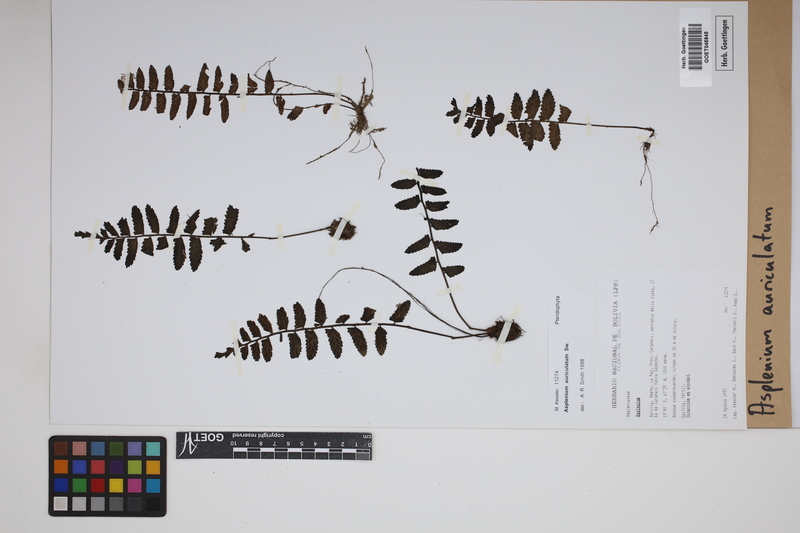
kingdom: Plantae
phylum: Tracheophyta
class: Polypodiopsida
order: Polypodiales
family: Aspleniaceae
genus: Asplenium
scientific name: Asplenium auriculatum
